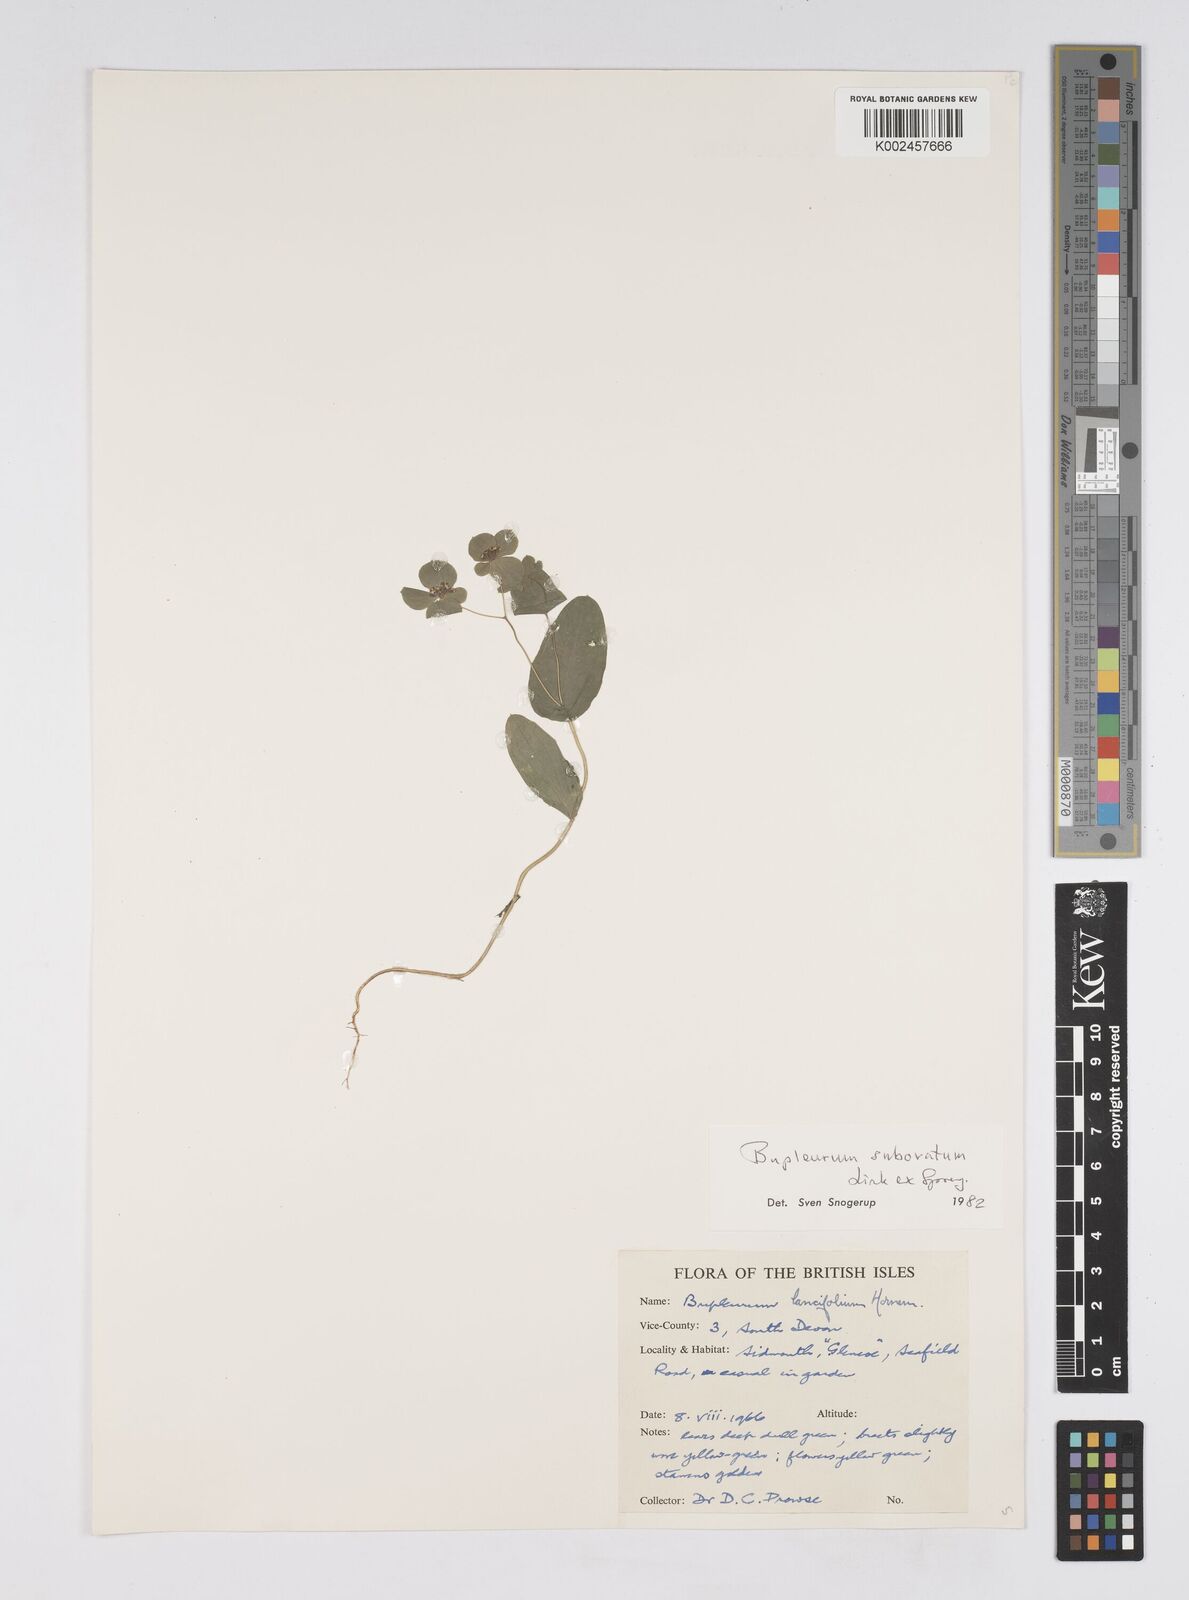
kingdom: Plantae
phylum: Tracheophyta
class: Magnoliopsida
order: Apiales
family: Apiaceae
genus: Bupleurum
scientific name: Bupleurum subovatum
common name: False thorow-wax
